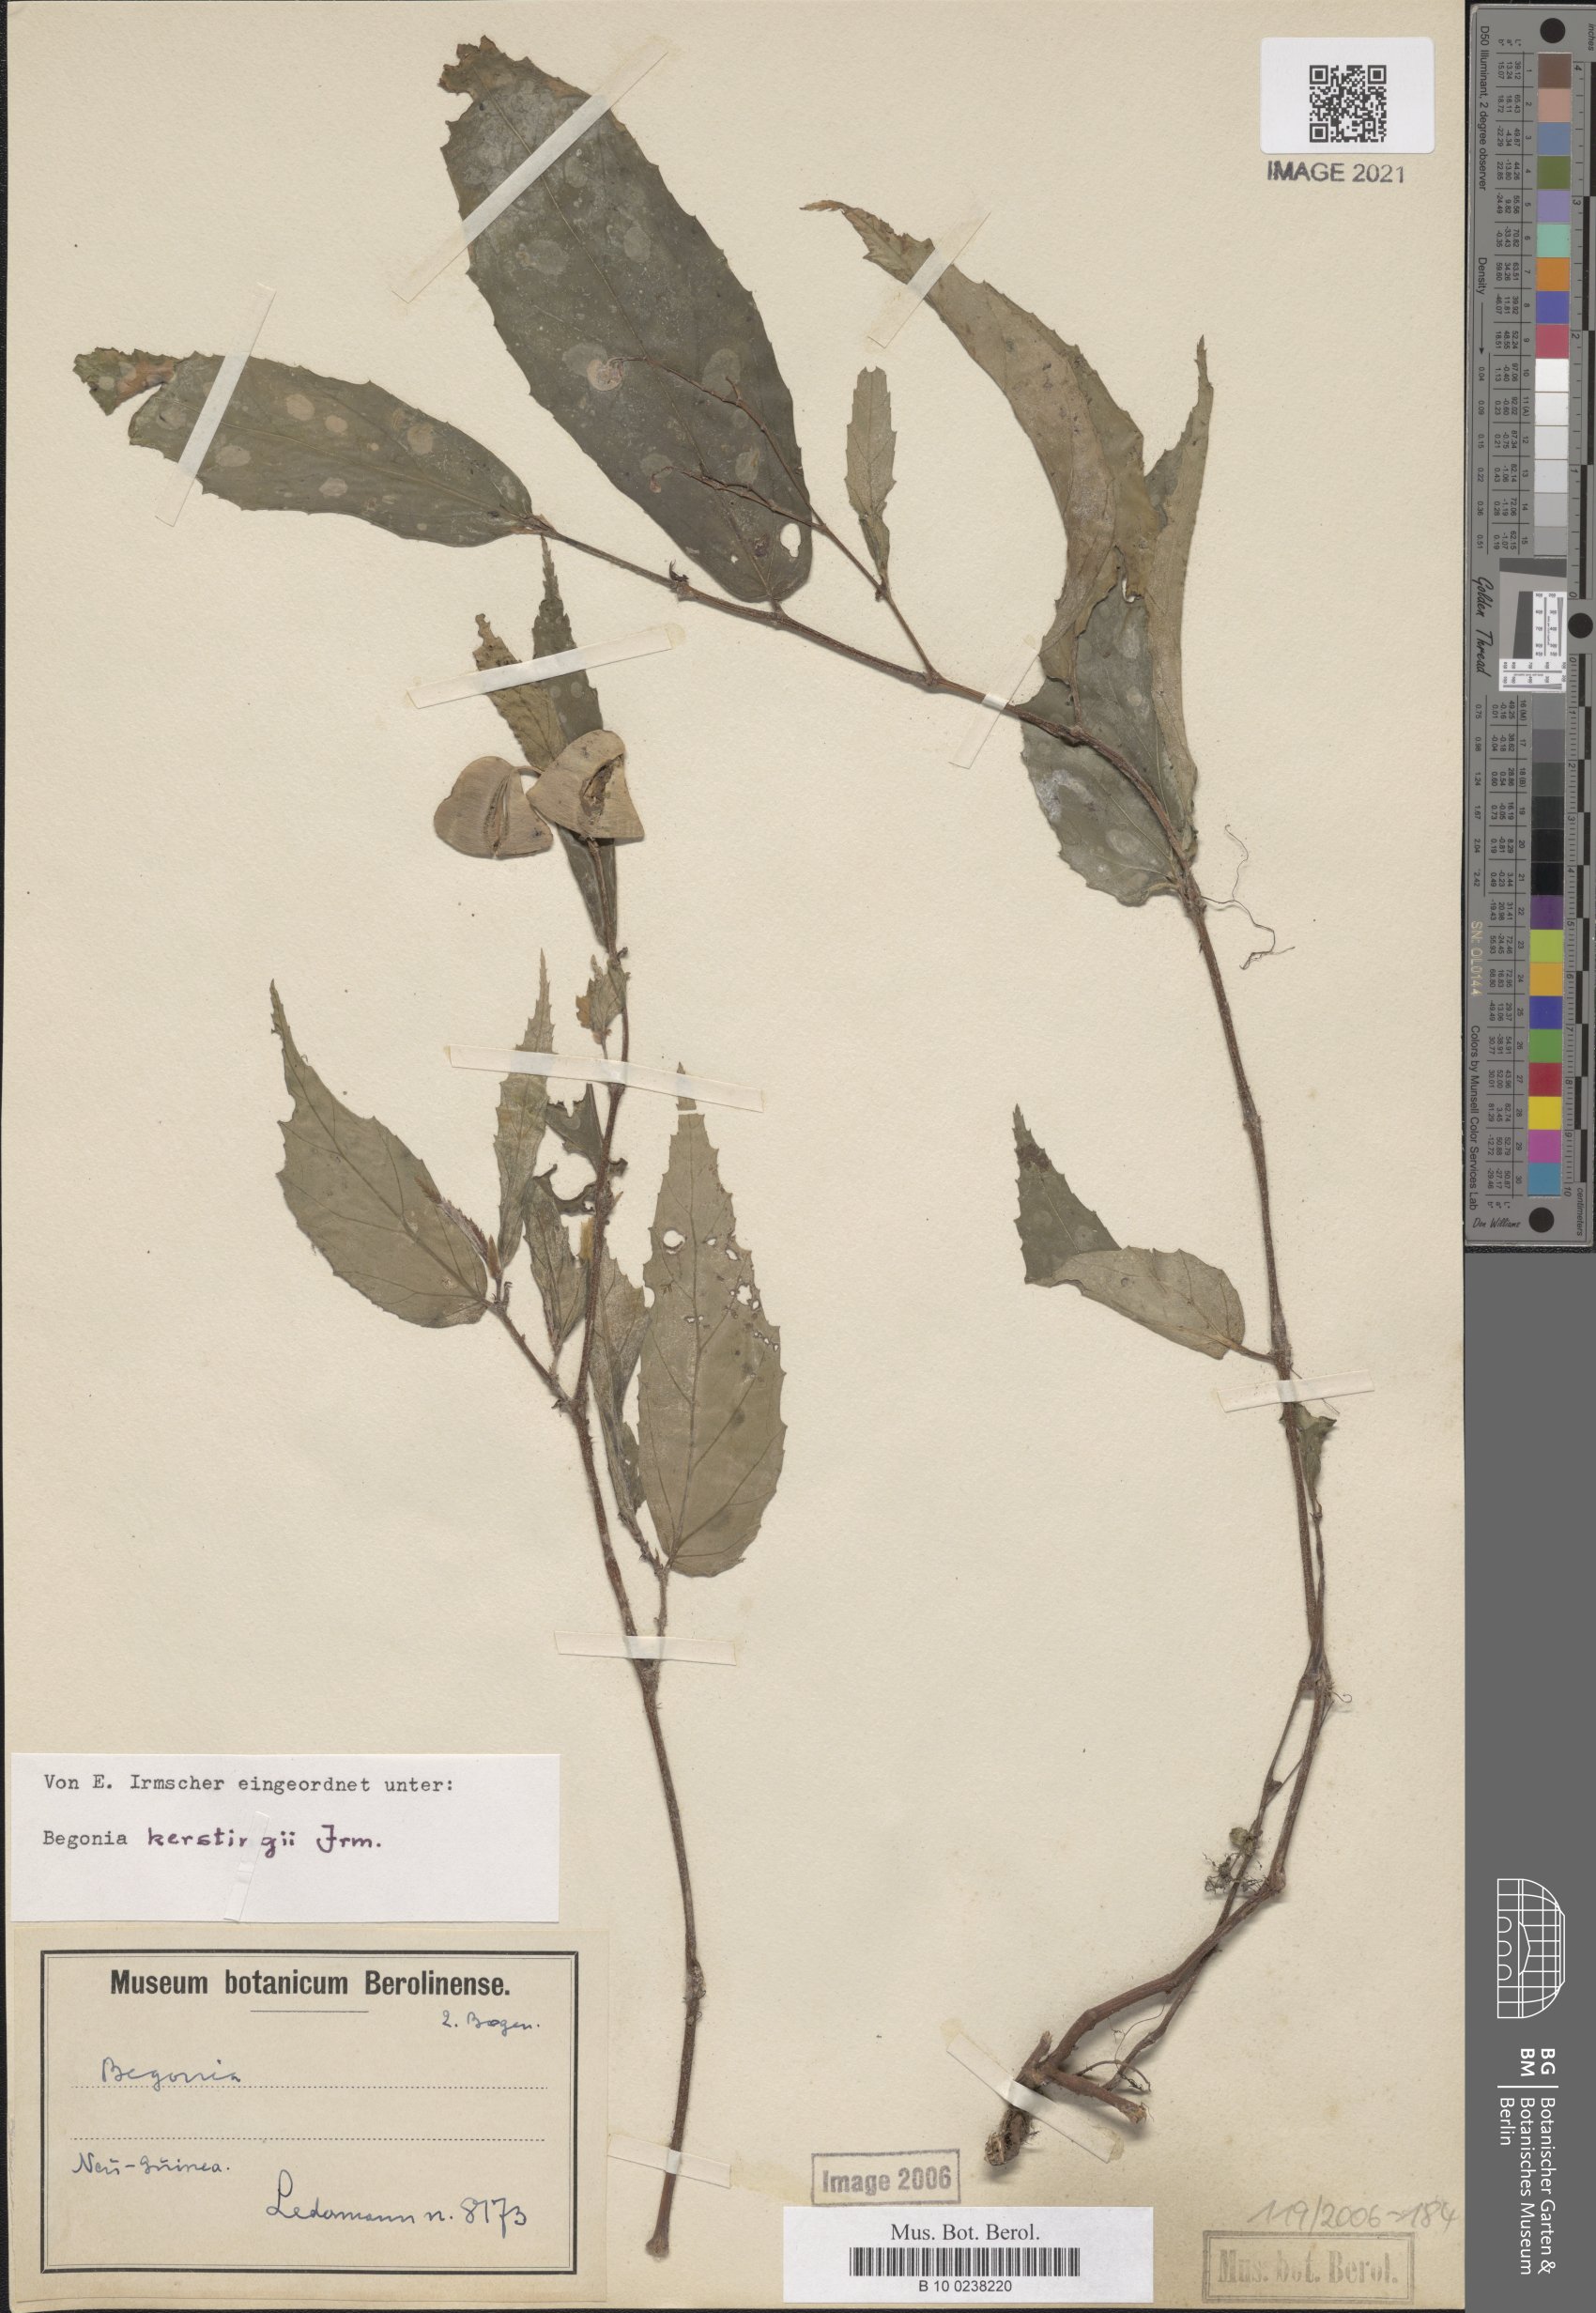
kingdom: Plantae
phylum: Tracheophyta
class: Magnoliopsida
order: Cucurbitales
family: Begoniaceae
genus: Begonia
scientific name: Begonia kerstingii
